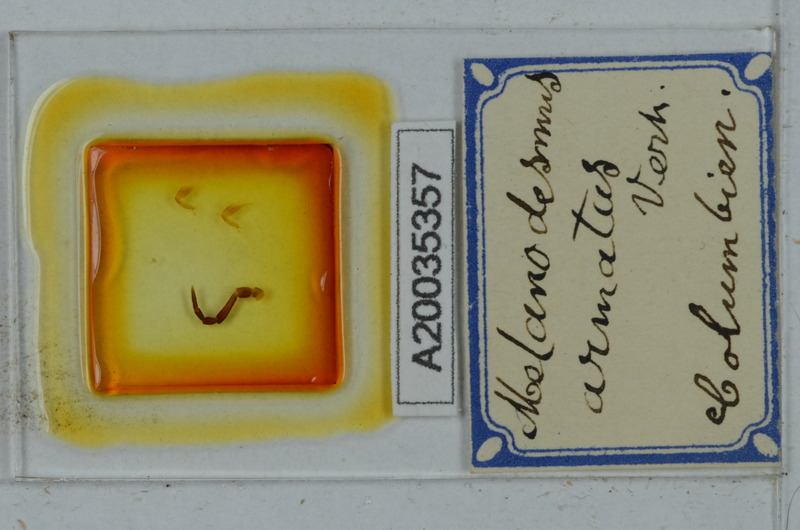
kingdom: Animalia
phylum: Arthropoda
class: Diplopoda
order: Polydesmida
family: Chelodesmidae
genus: Biporodesmus
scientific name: Biporodesmus armatus
